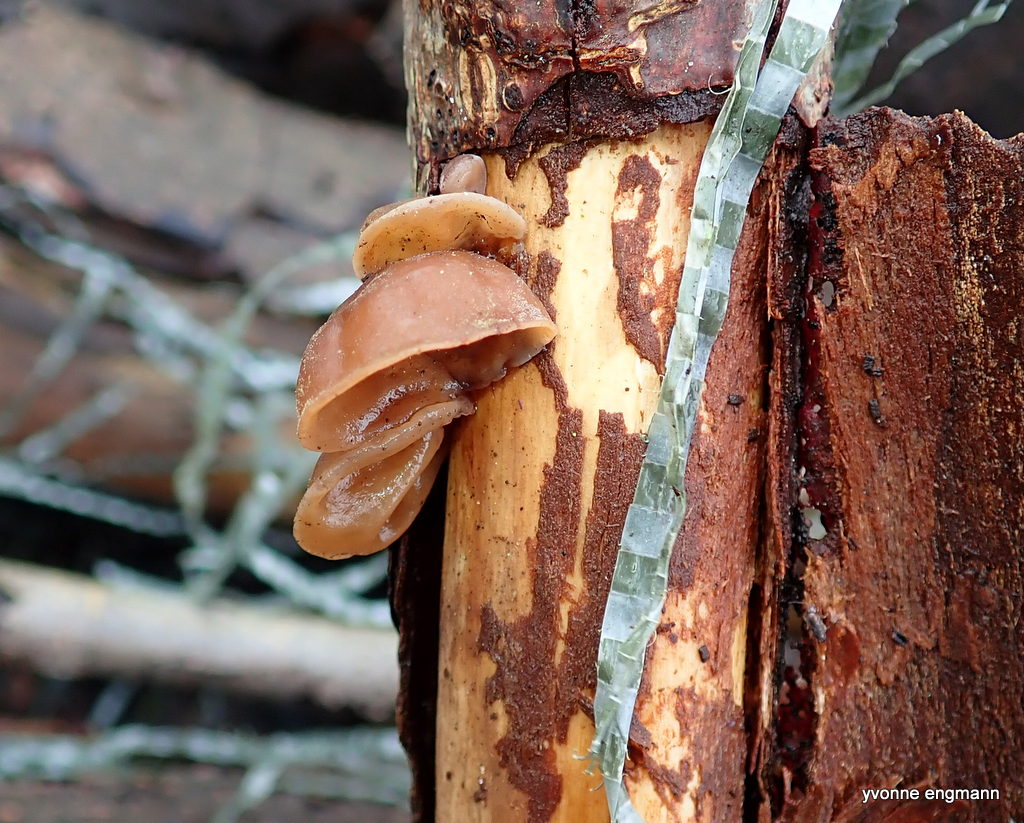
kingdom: Fungi
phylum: Basidiomycota
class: Agaricomycetes
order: Auriculariales
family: Auriculariaceae
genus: Auricularia
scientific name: Auricularia auricula-judae
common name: almindelig judasøre
